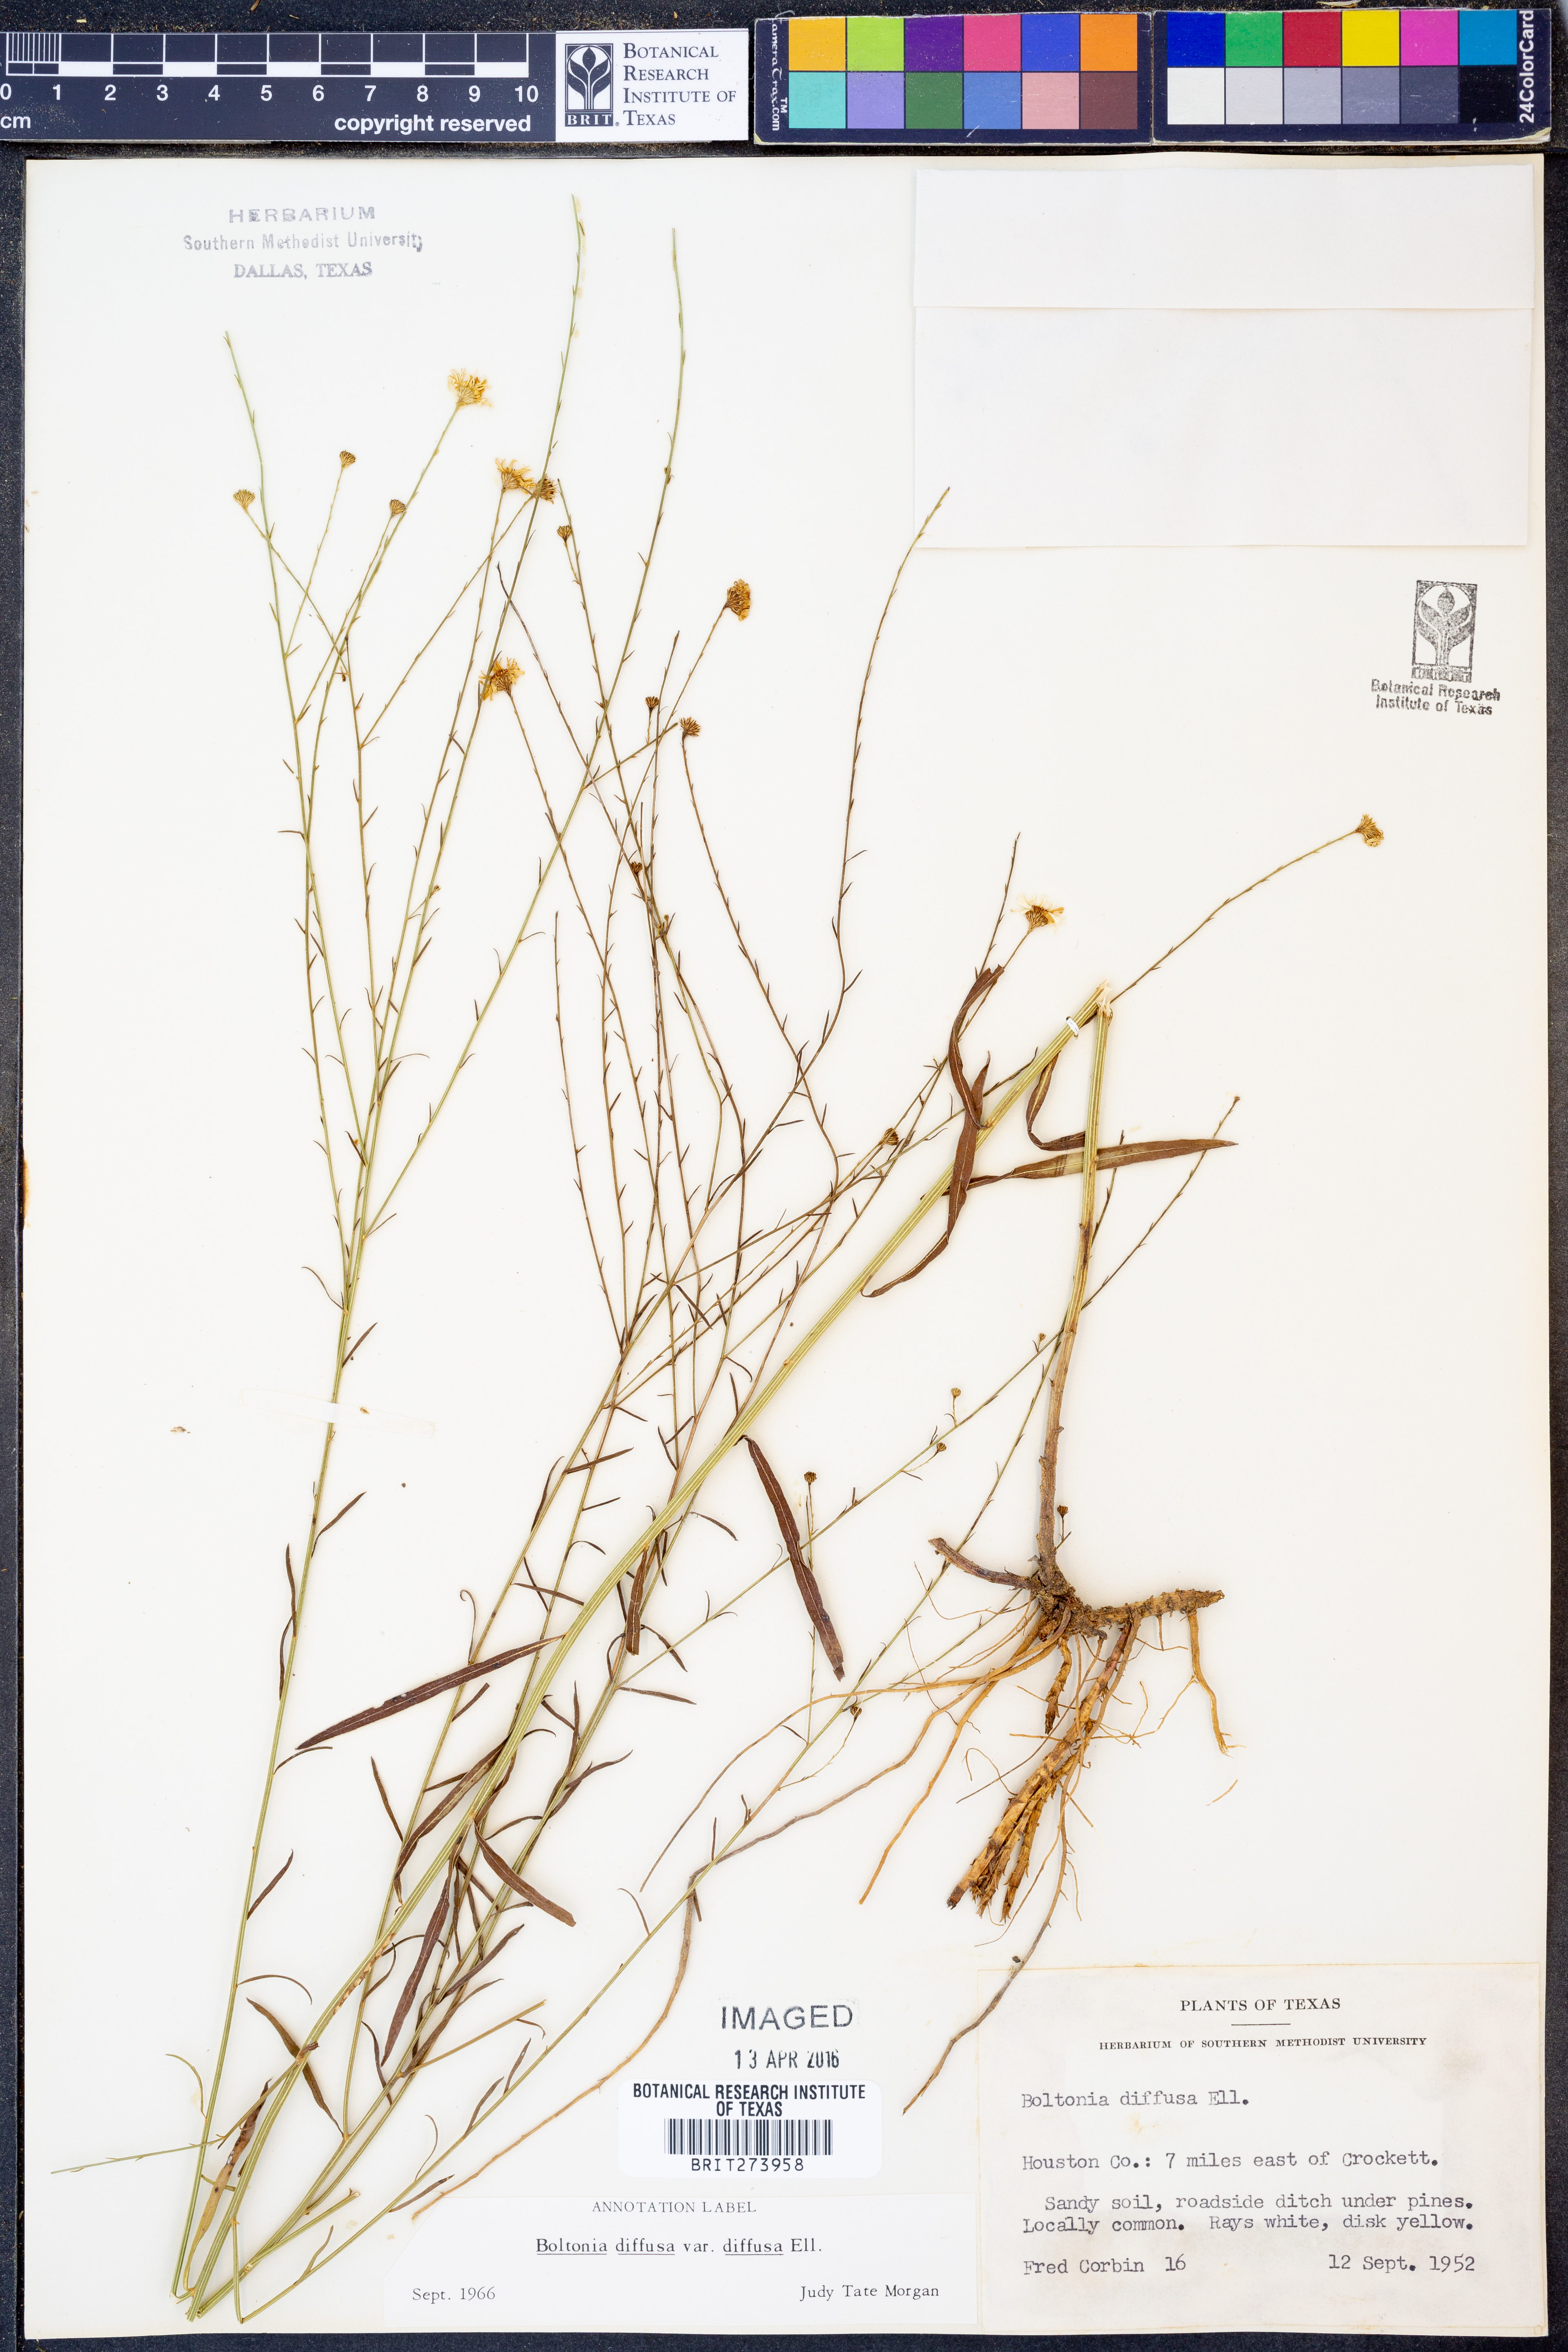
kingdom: Plantae
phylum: Tracheophyta
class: Magnoliopsida
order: Asterales
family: Asteraceae
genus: Boltonia
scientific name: Boltonia diffusa
